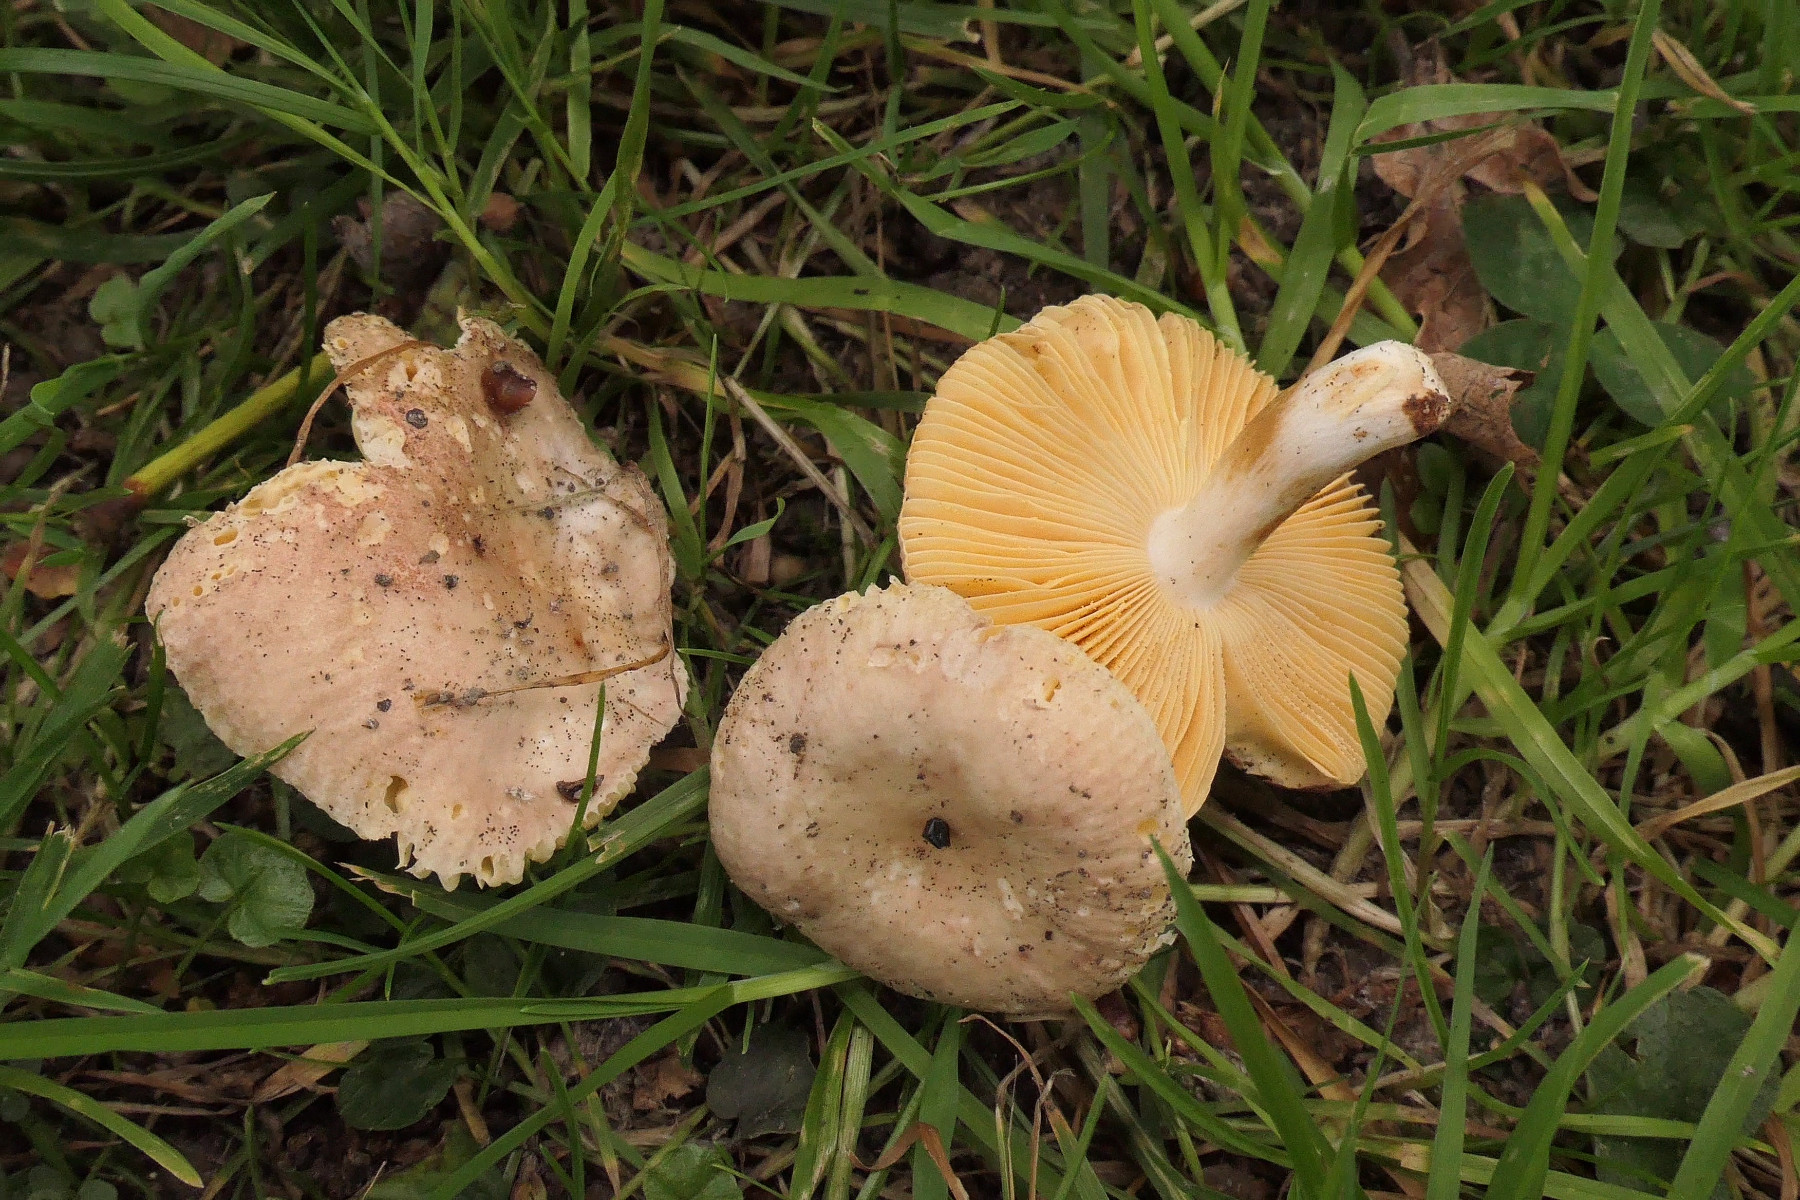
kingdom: Fungi
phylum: Basidiomycota
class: Agaricomycetes
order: Russulales
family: Russulaceae
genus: Russula
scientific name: Russula odorata
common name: duft-skørhat
